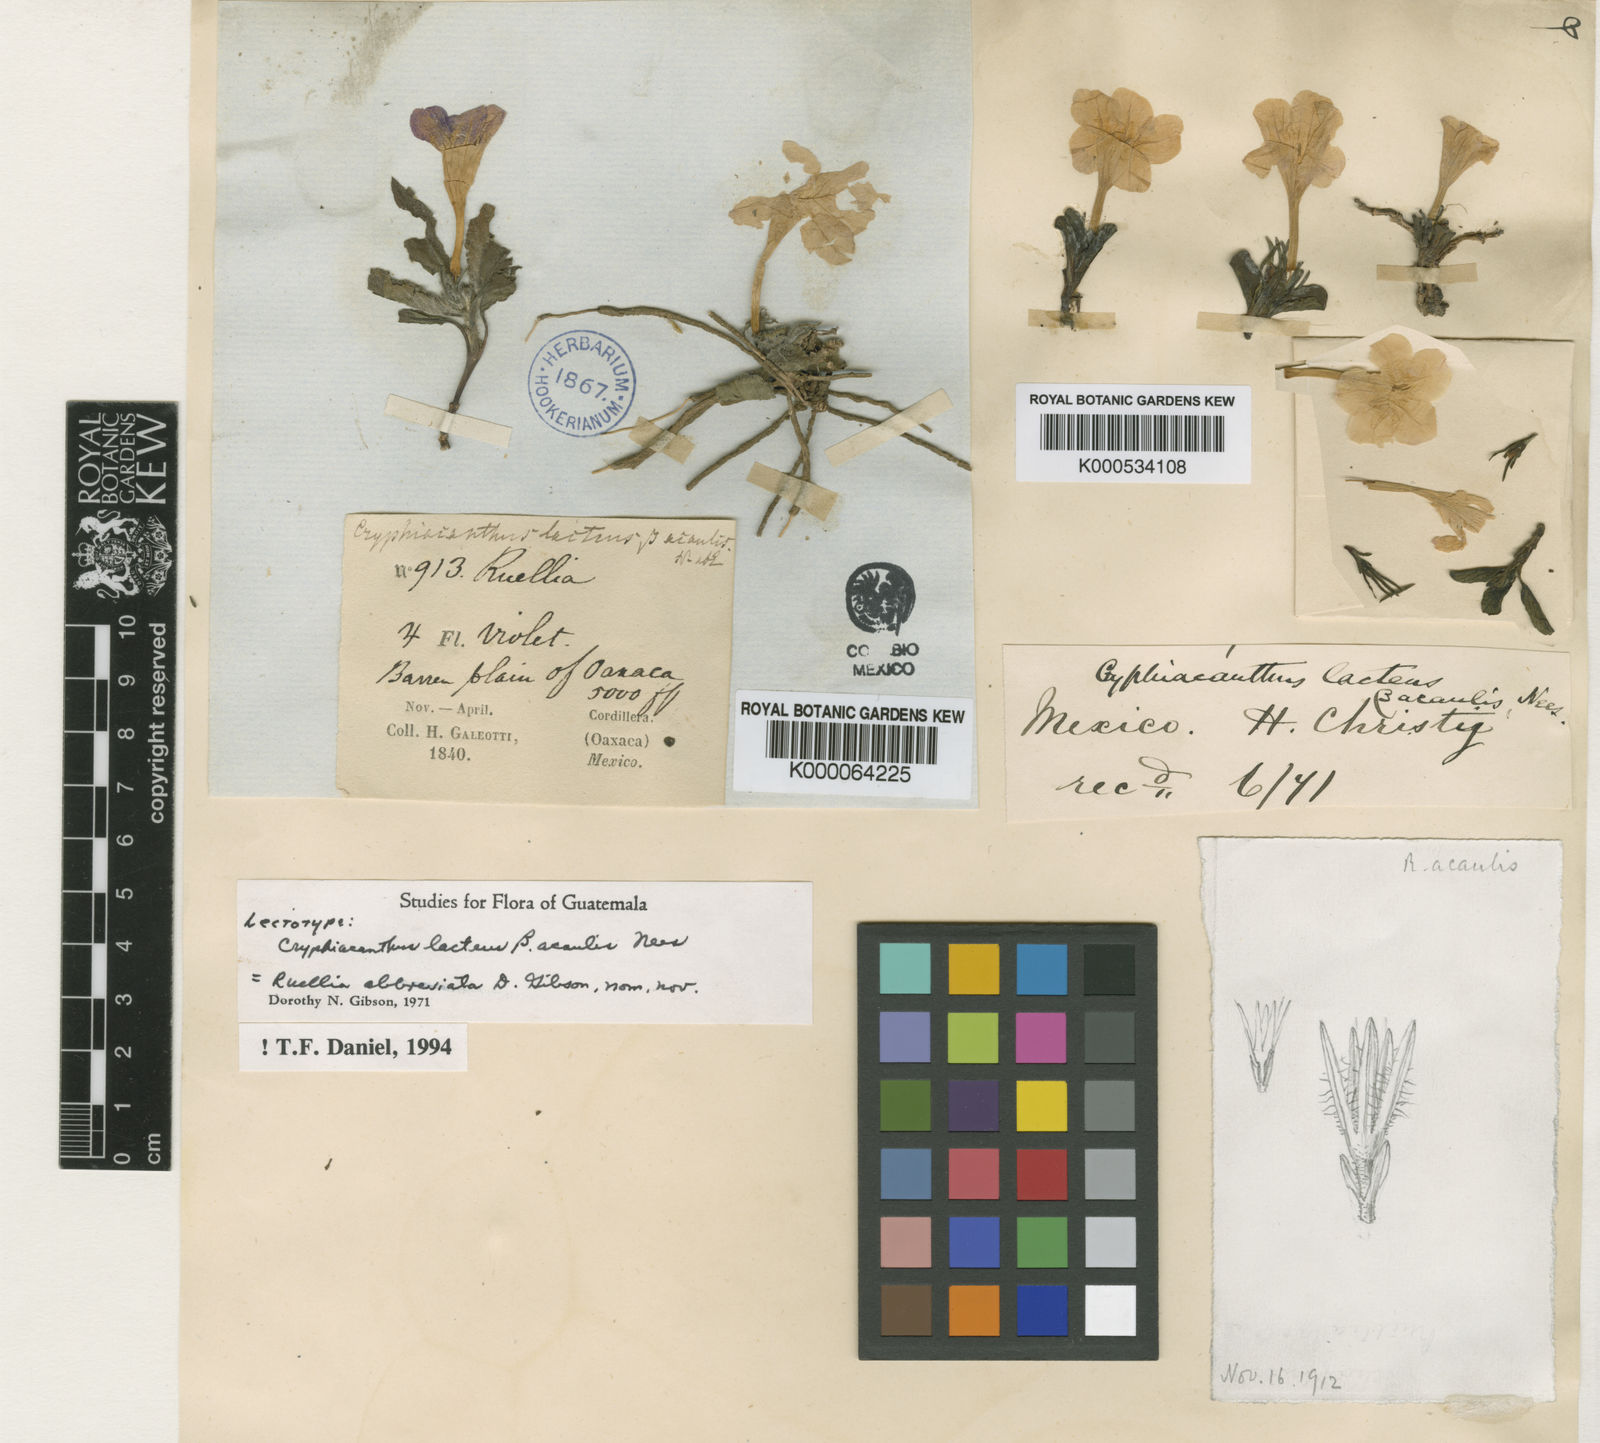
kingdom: Plantae
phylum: Tracheophyta
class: Magnoliopsida
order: Lamiales
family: Acanthaceae
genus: Ruellia
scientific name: Ruellia lactea
